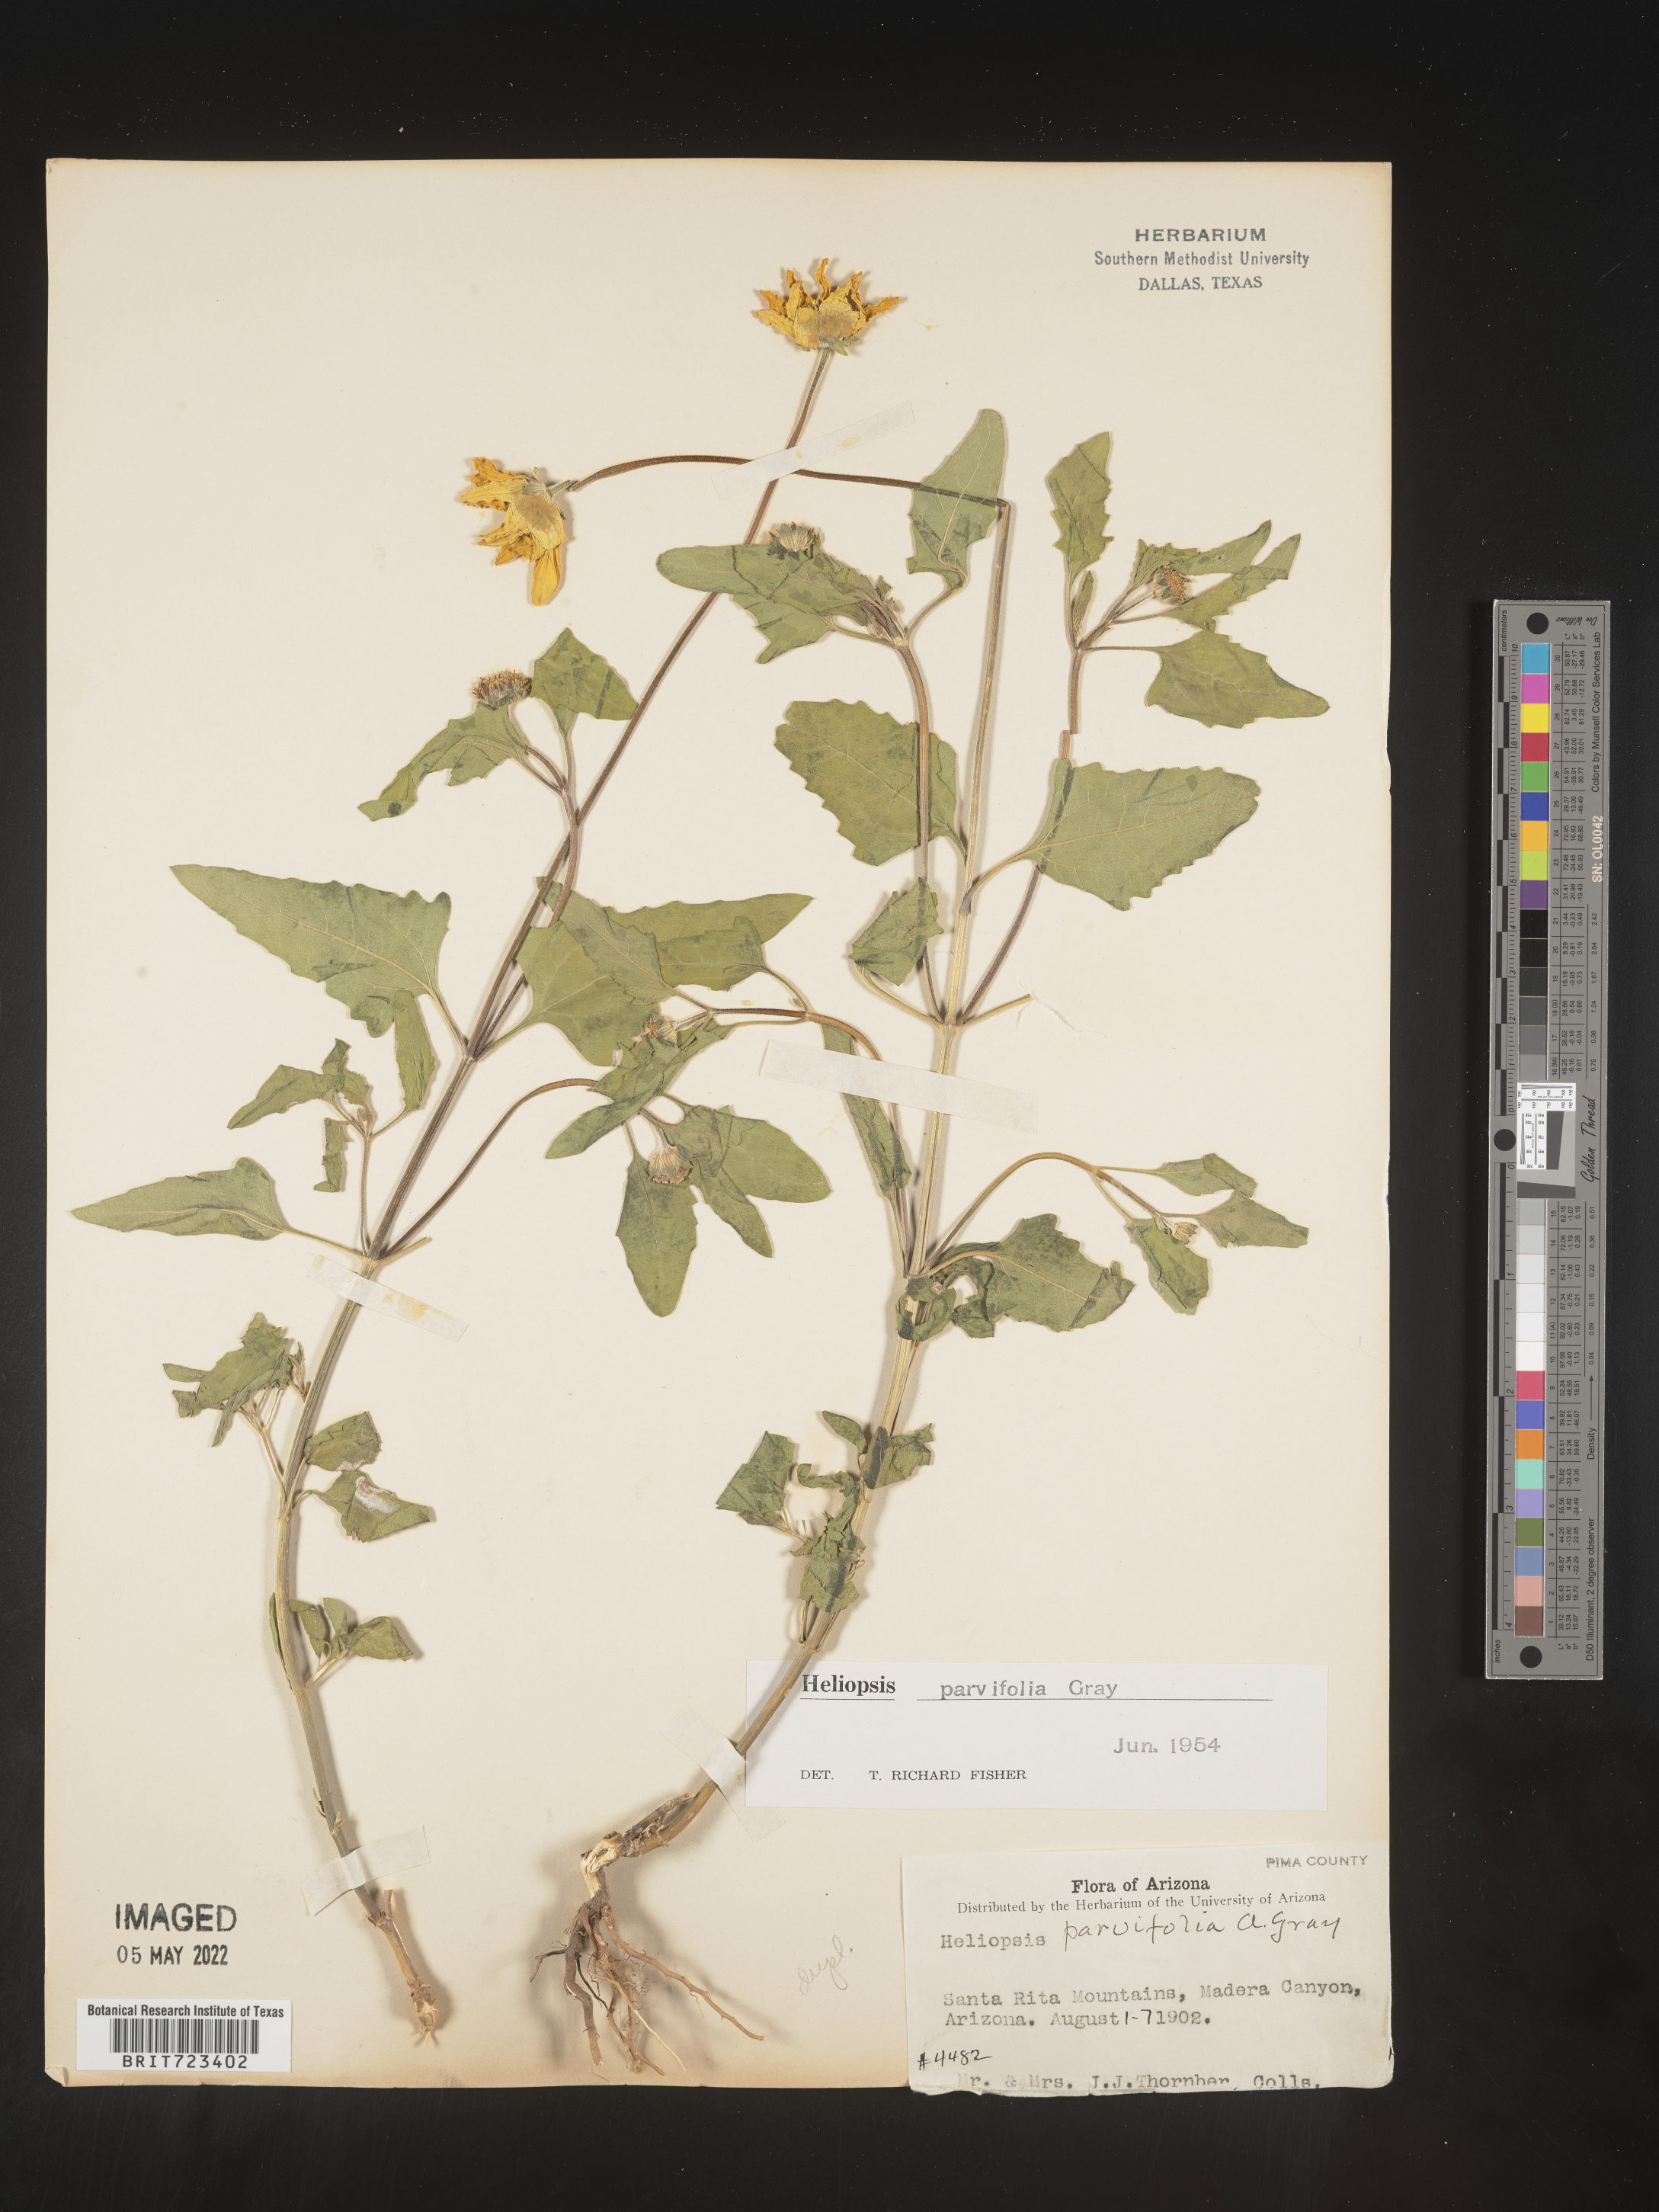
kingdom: Plantae
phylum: Tracheophyta
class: Magnoliopsida
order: Asterales
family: Asteraceae
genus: Heliopsis
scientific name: Heliopsis parvifolia
